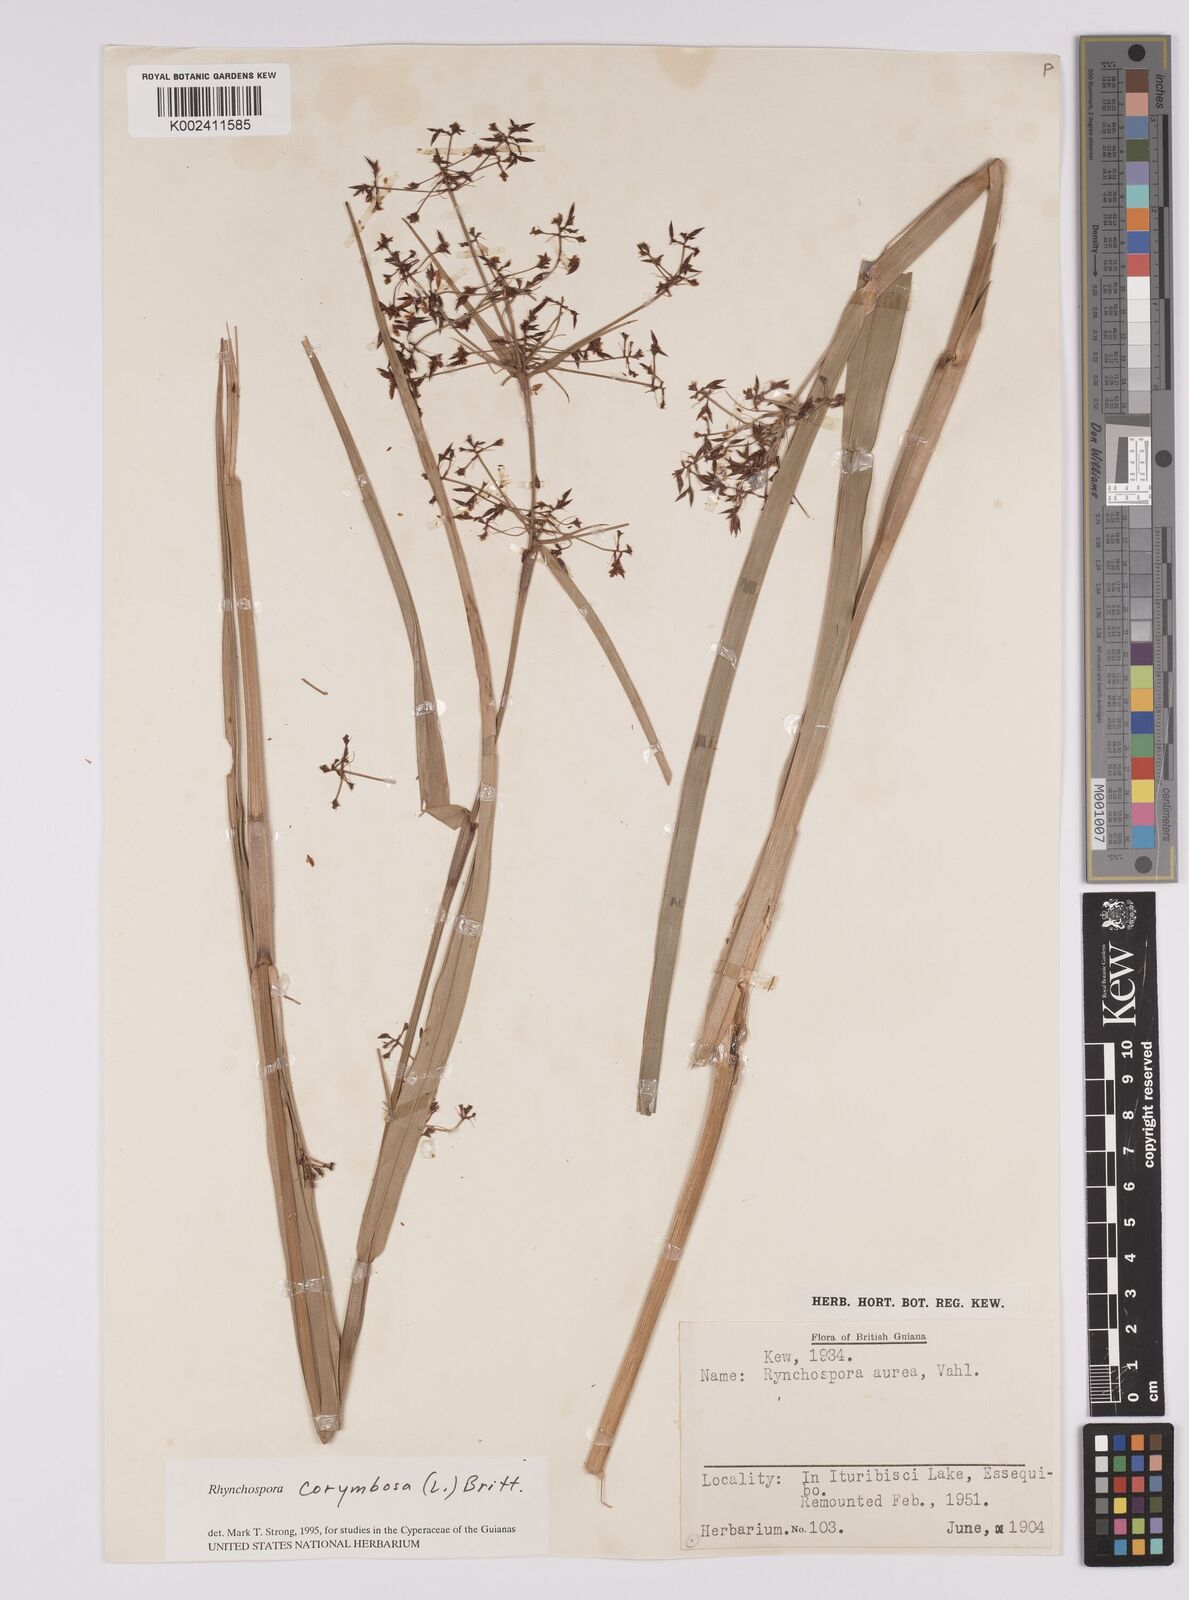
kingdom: Plantae
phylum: Tracheophyta
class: Liliopsida
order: Poales
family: Cyperaceae
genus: Rhynchospora
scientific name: Rhynchospora corymbosa
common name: Golden beak sedge
